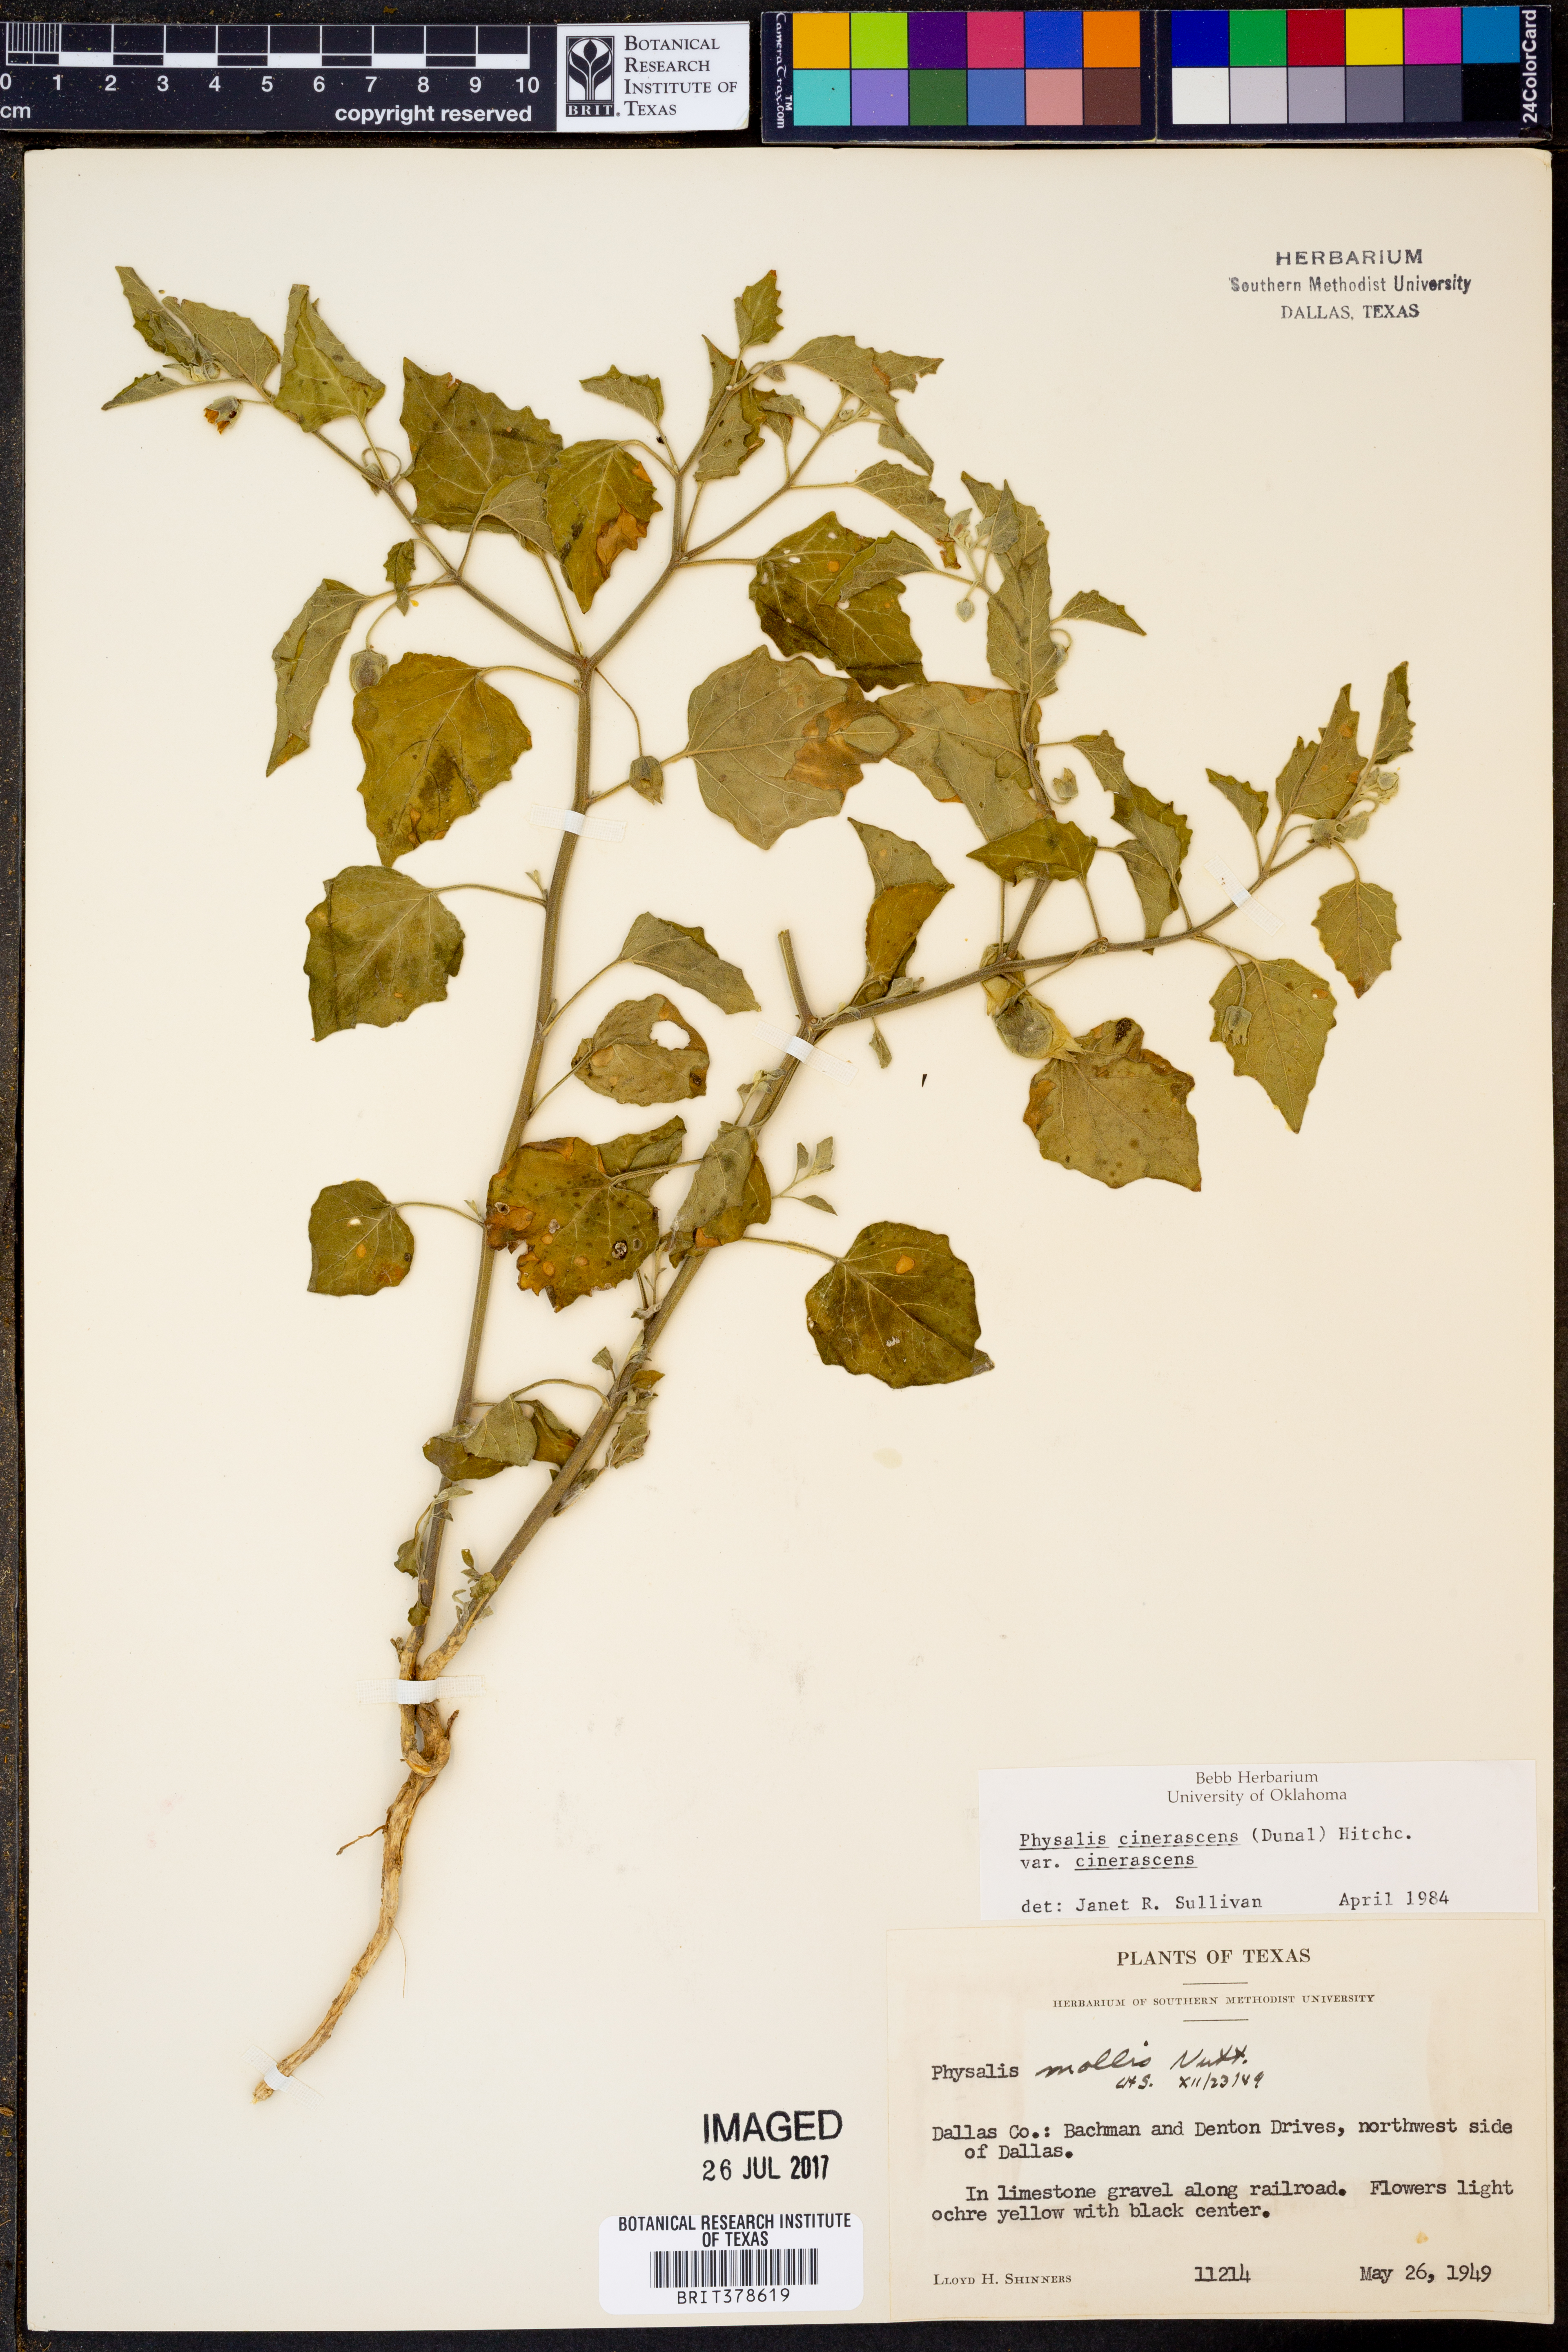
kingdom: Plantae
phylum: Tracheophyta
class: Magnoliopsida
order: Solanales
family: Solanaceae
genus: Physalis
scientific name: Physalis cinerascens
